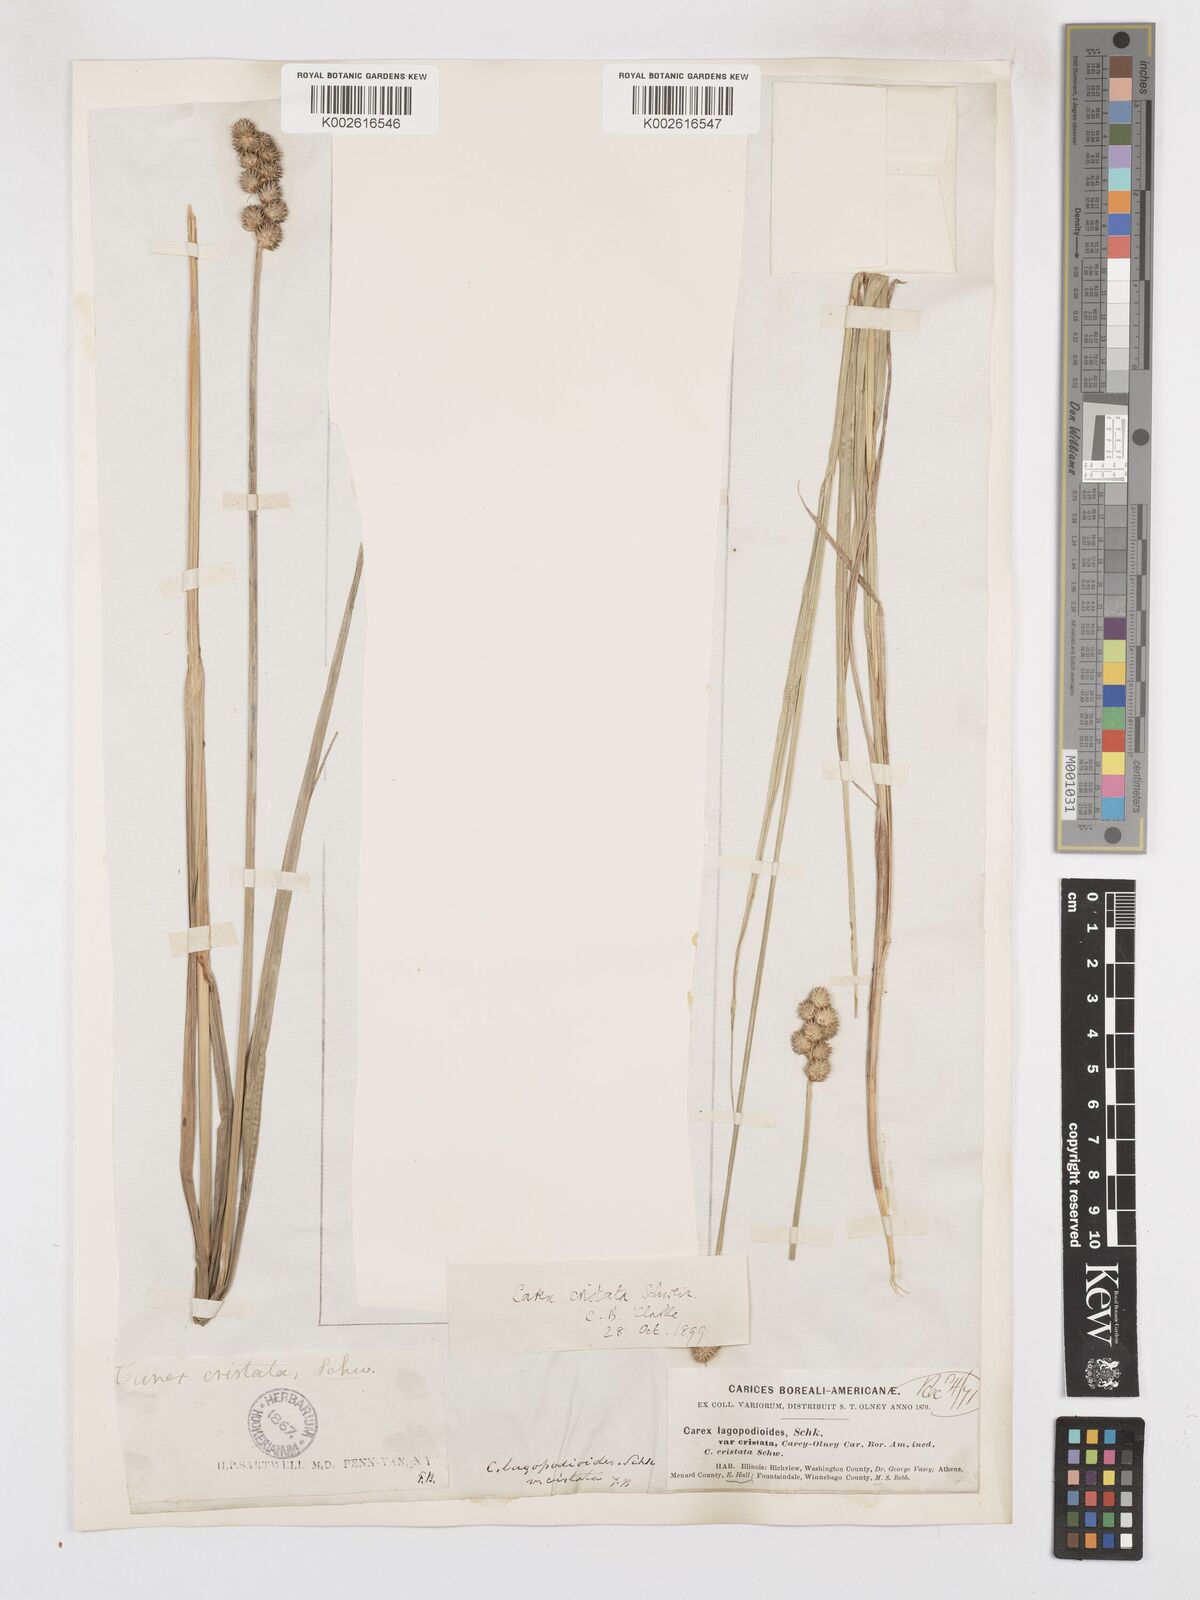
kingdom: Plantae
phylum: Tracheophyta
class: Liliopsida
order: Poales
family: Cyperaceae
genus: Carex
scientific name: Carex cristatella
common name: Crested oval sedge
